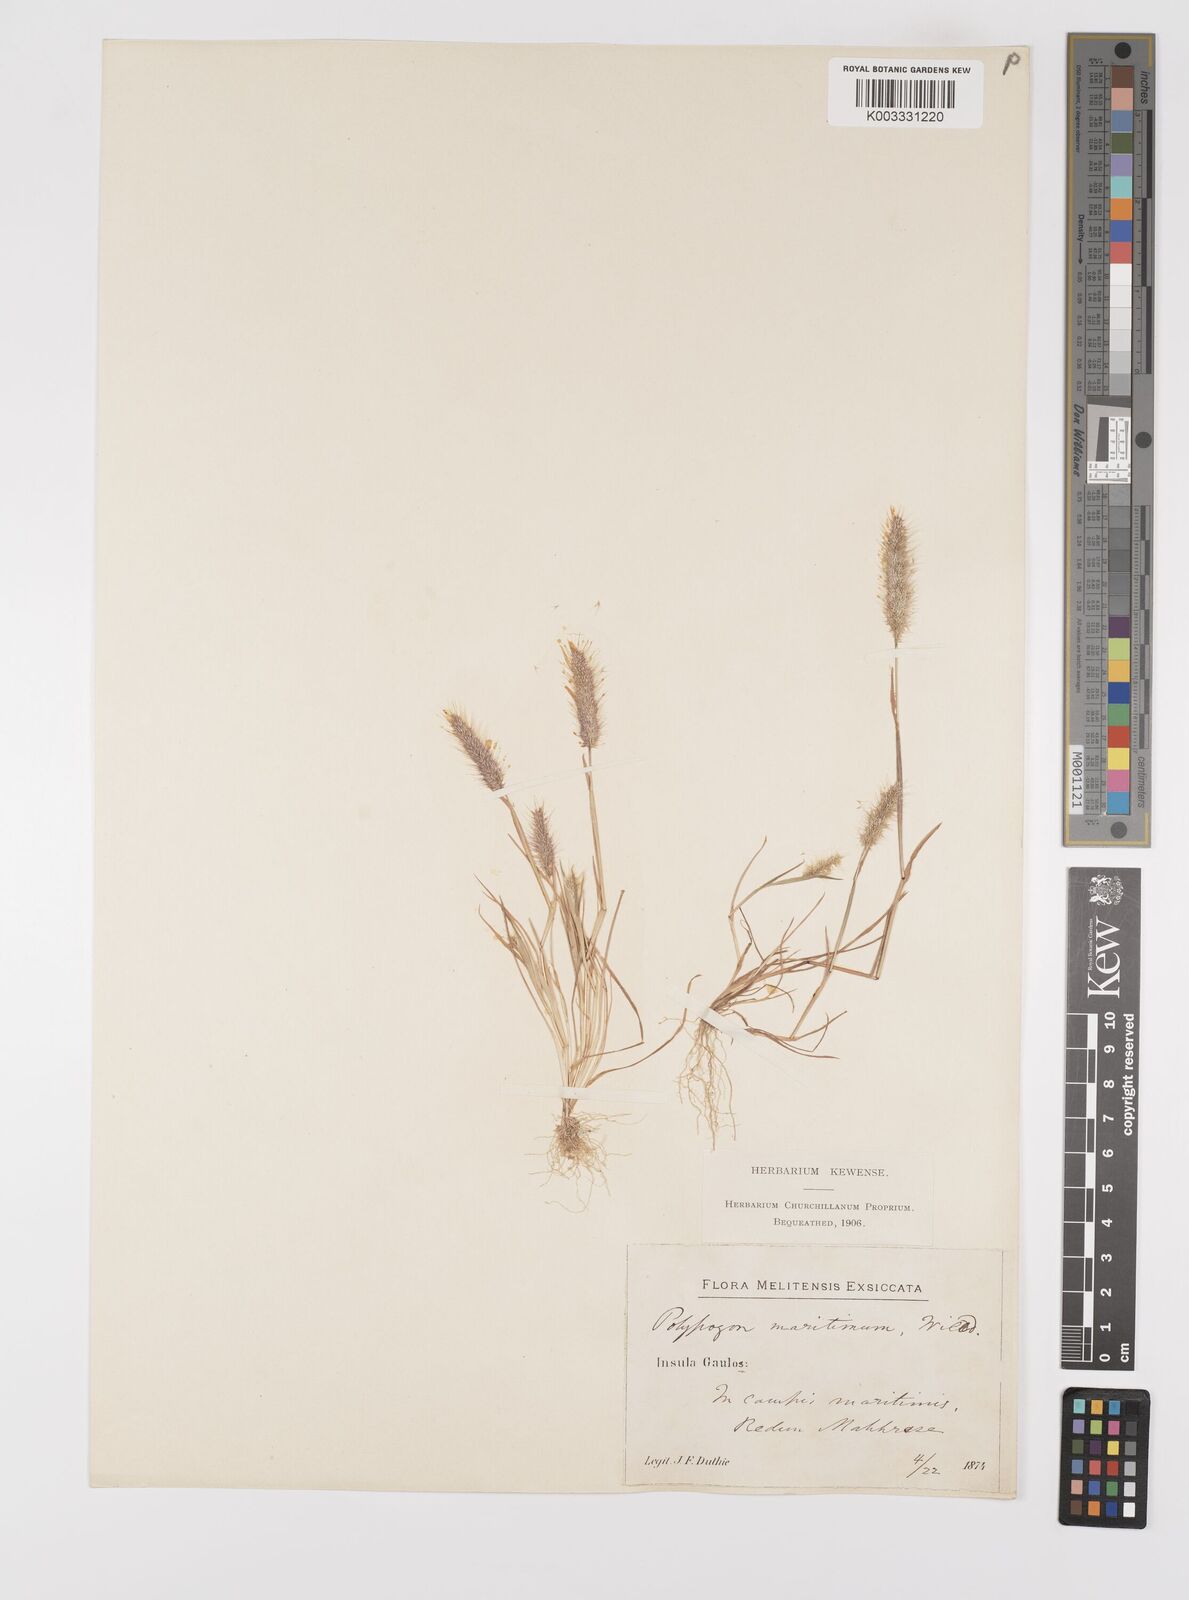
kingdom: Plantae
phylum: Tracheophyta
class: Liliopsida
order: Poales
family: Poaceae
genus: Polypogon
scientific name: Polypogon maritimus
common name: Mediterranean rabbitsfoot grass
